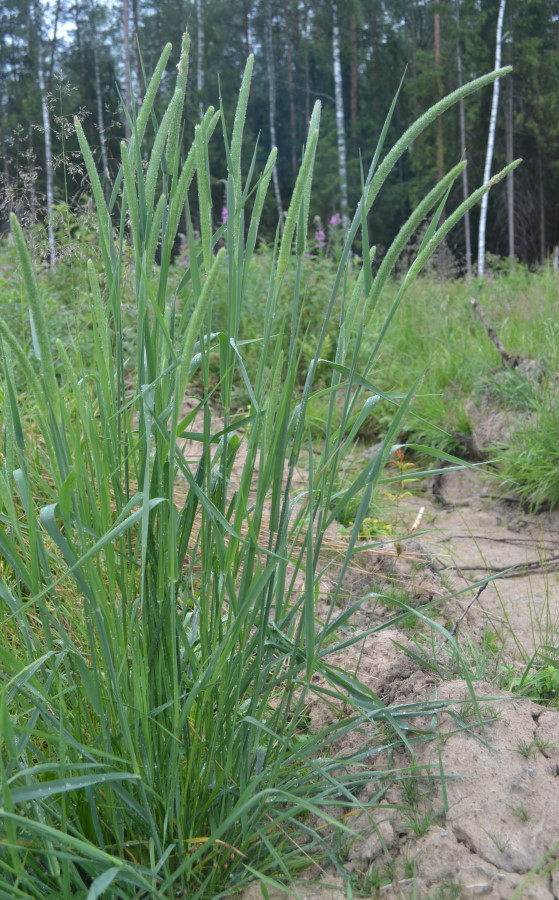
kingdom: Plantae
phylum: Tracheophyta
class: Liliopsida
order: Poales
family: Poaceae
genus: Alopecurus
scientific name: Alopecurus pratensis
